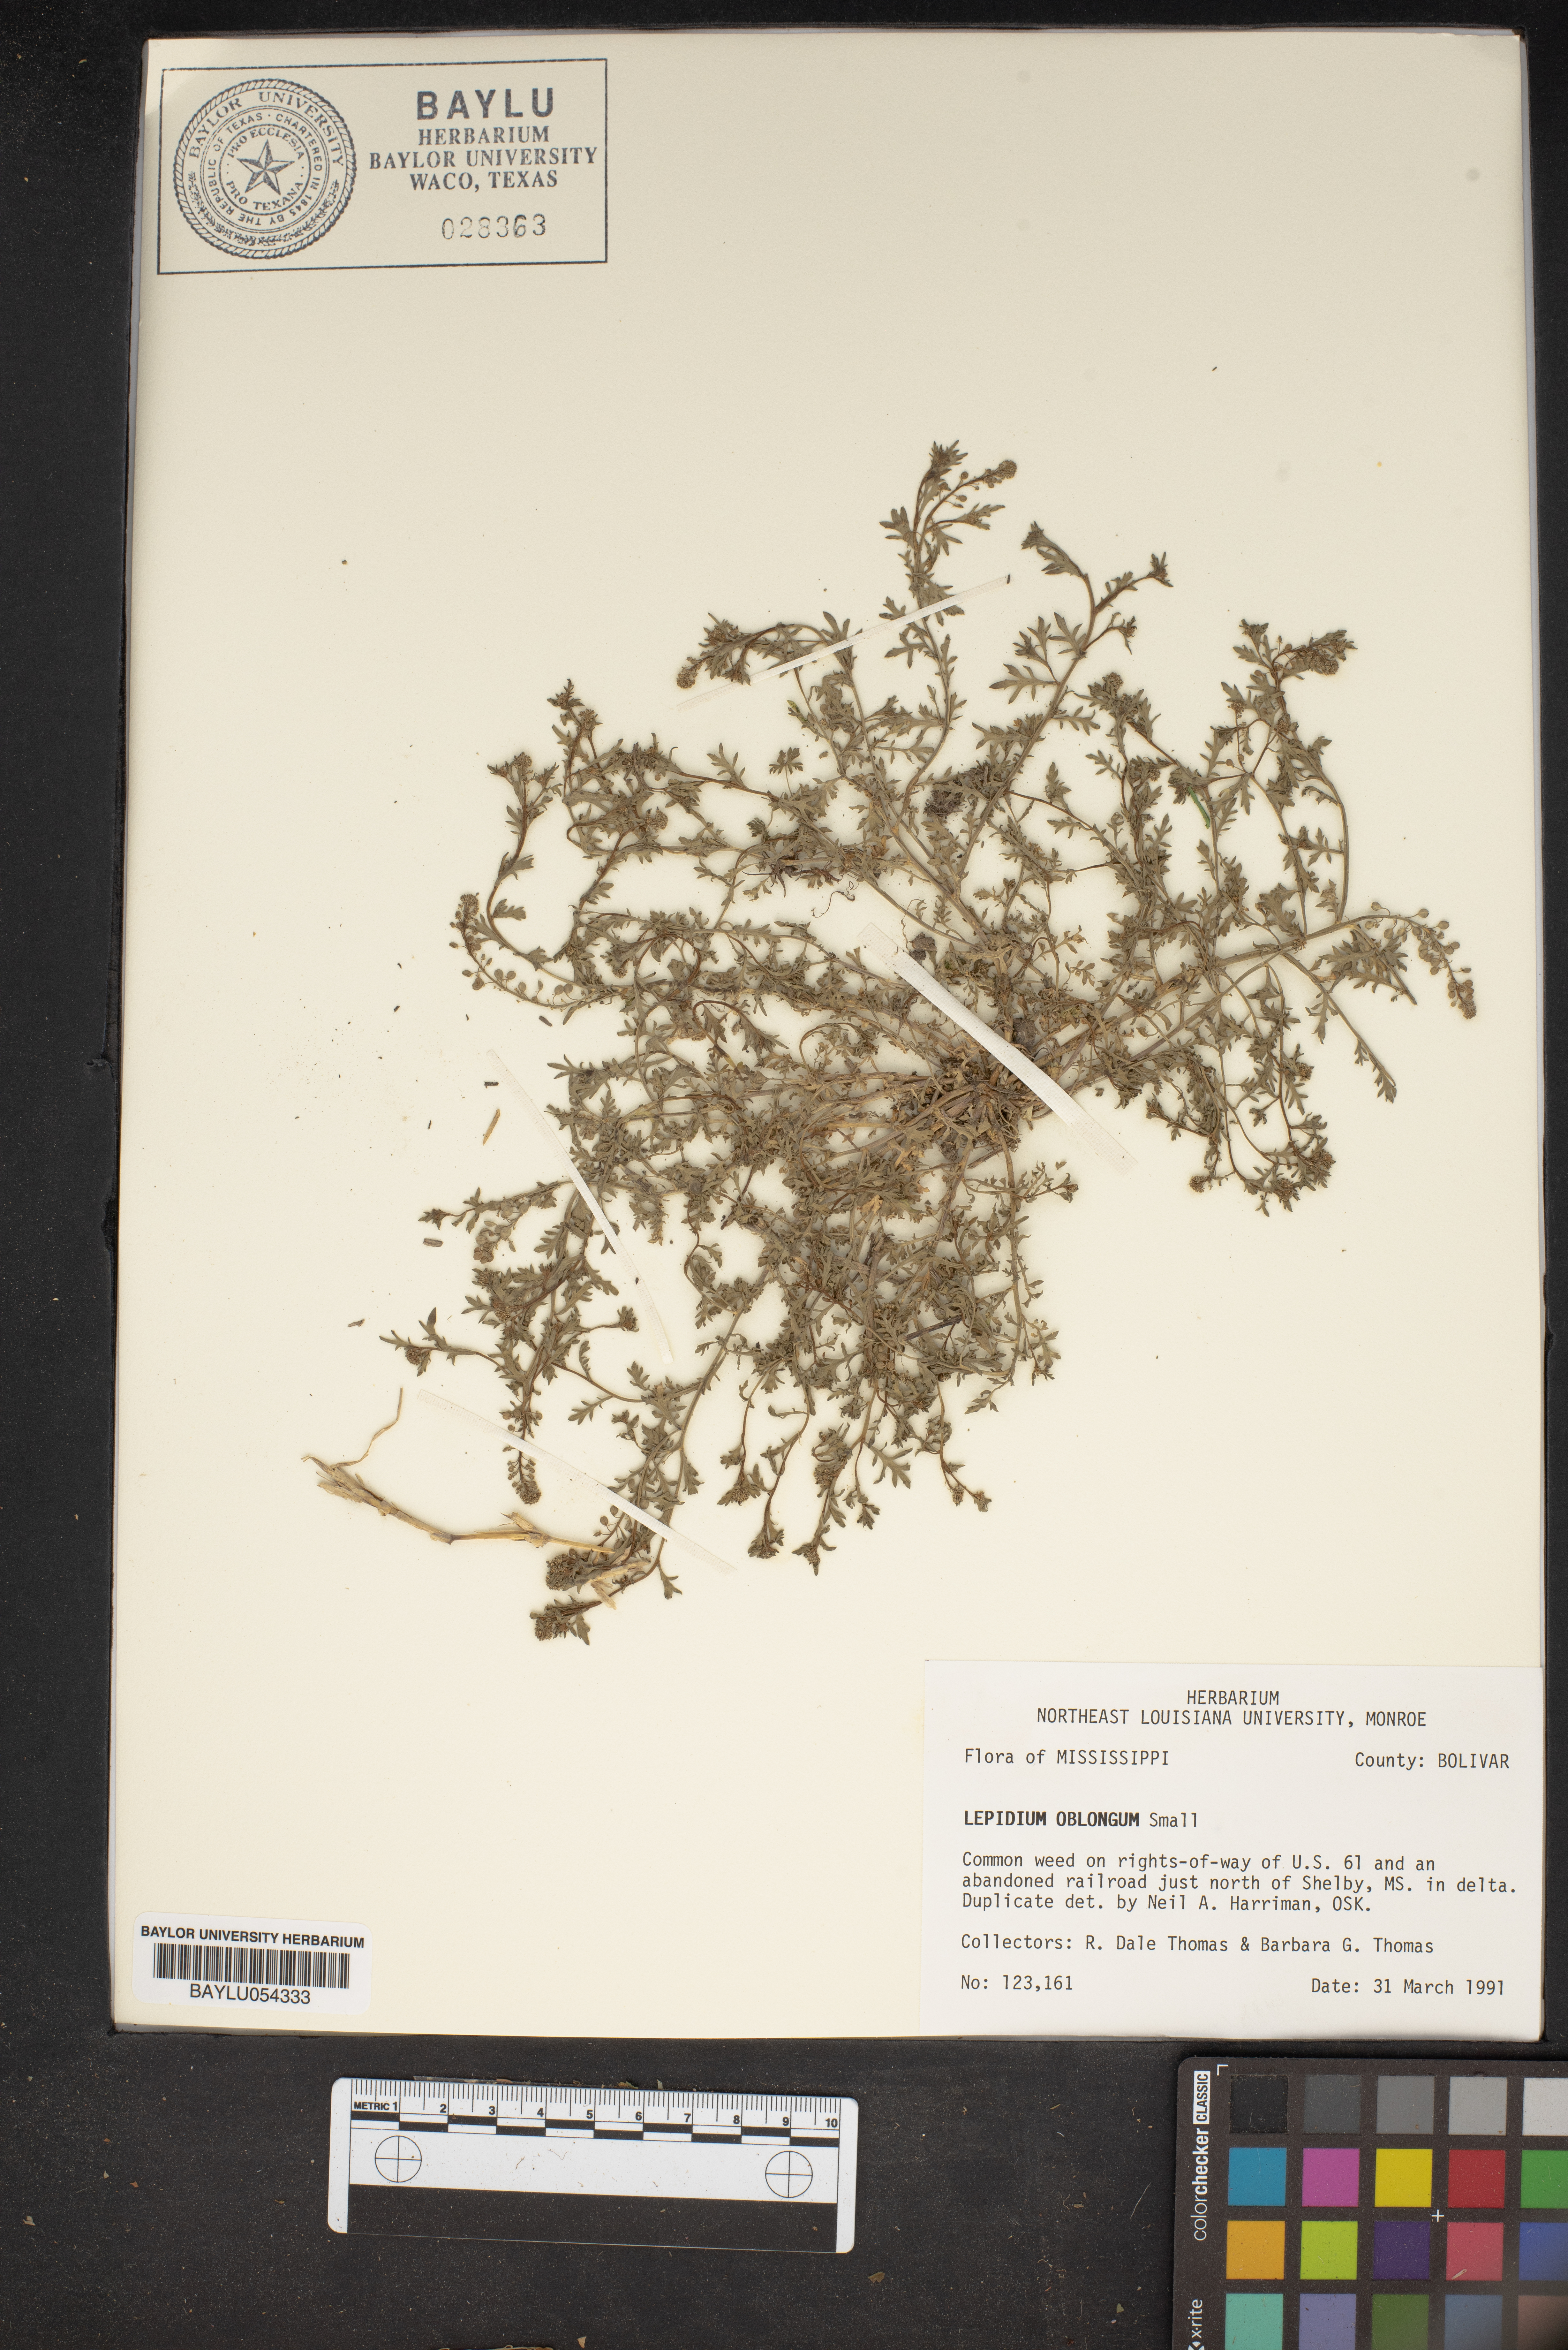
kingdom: Plantae
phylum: Tracheophyta
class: Magnoliopsida
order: Brassicales
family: Brassicaceae
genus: Lepidium
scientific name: Lepidium oblongum
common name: Veiny pepperweed
